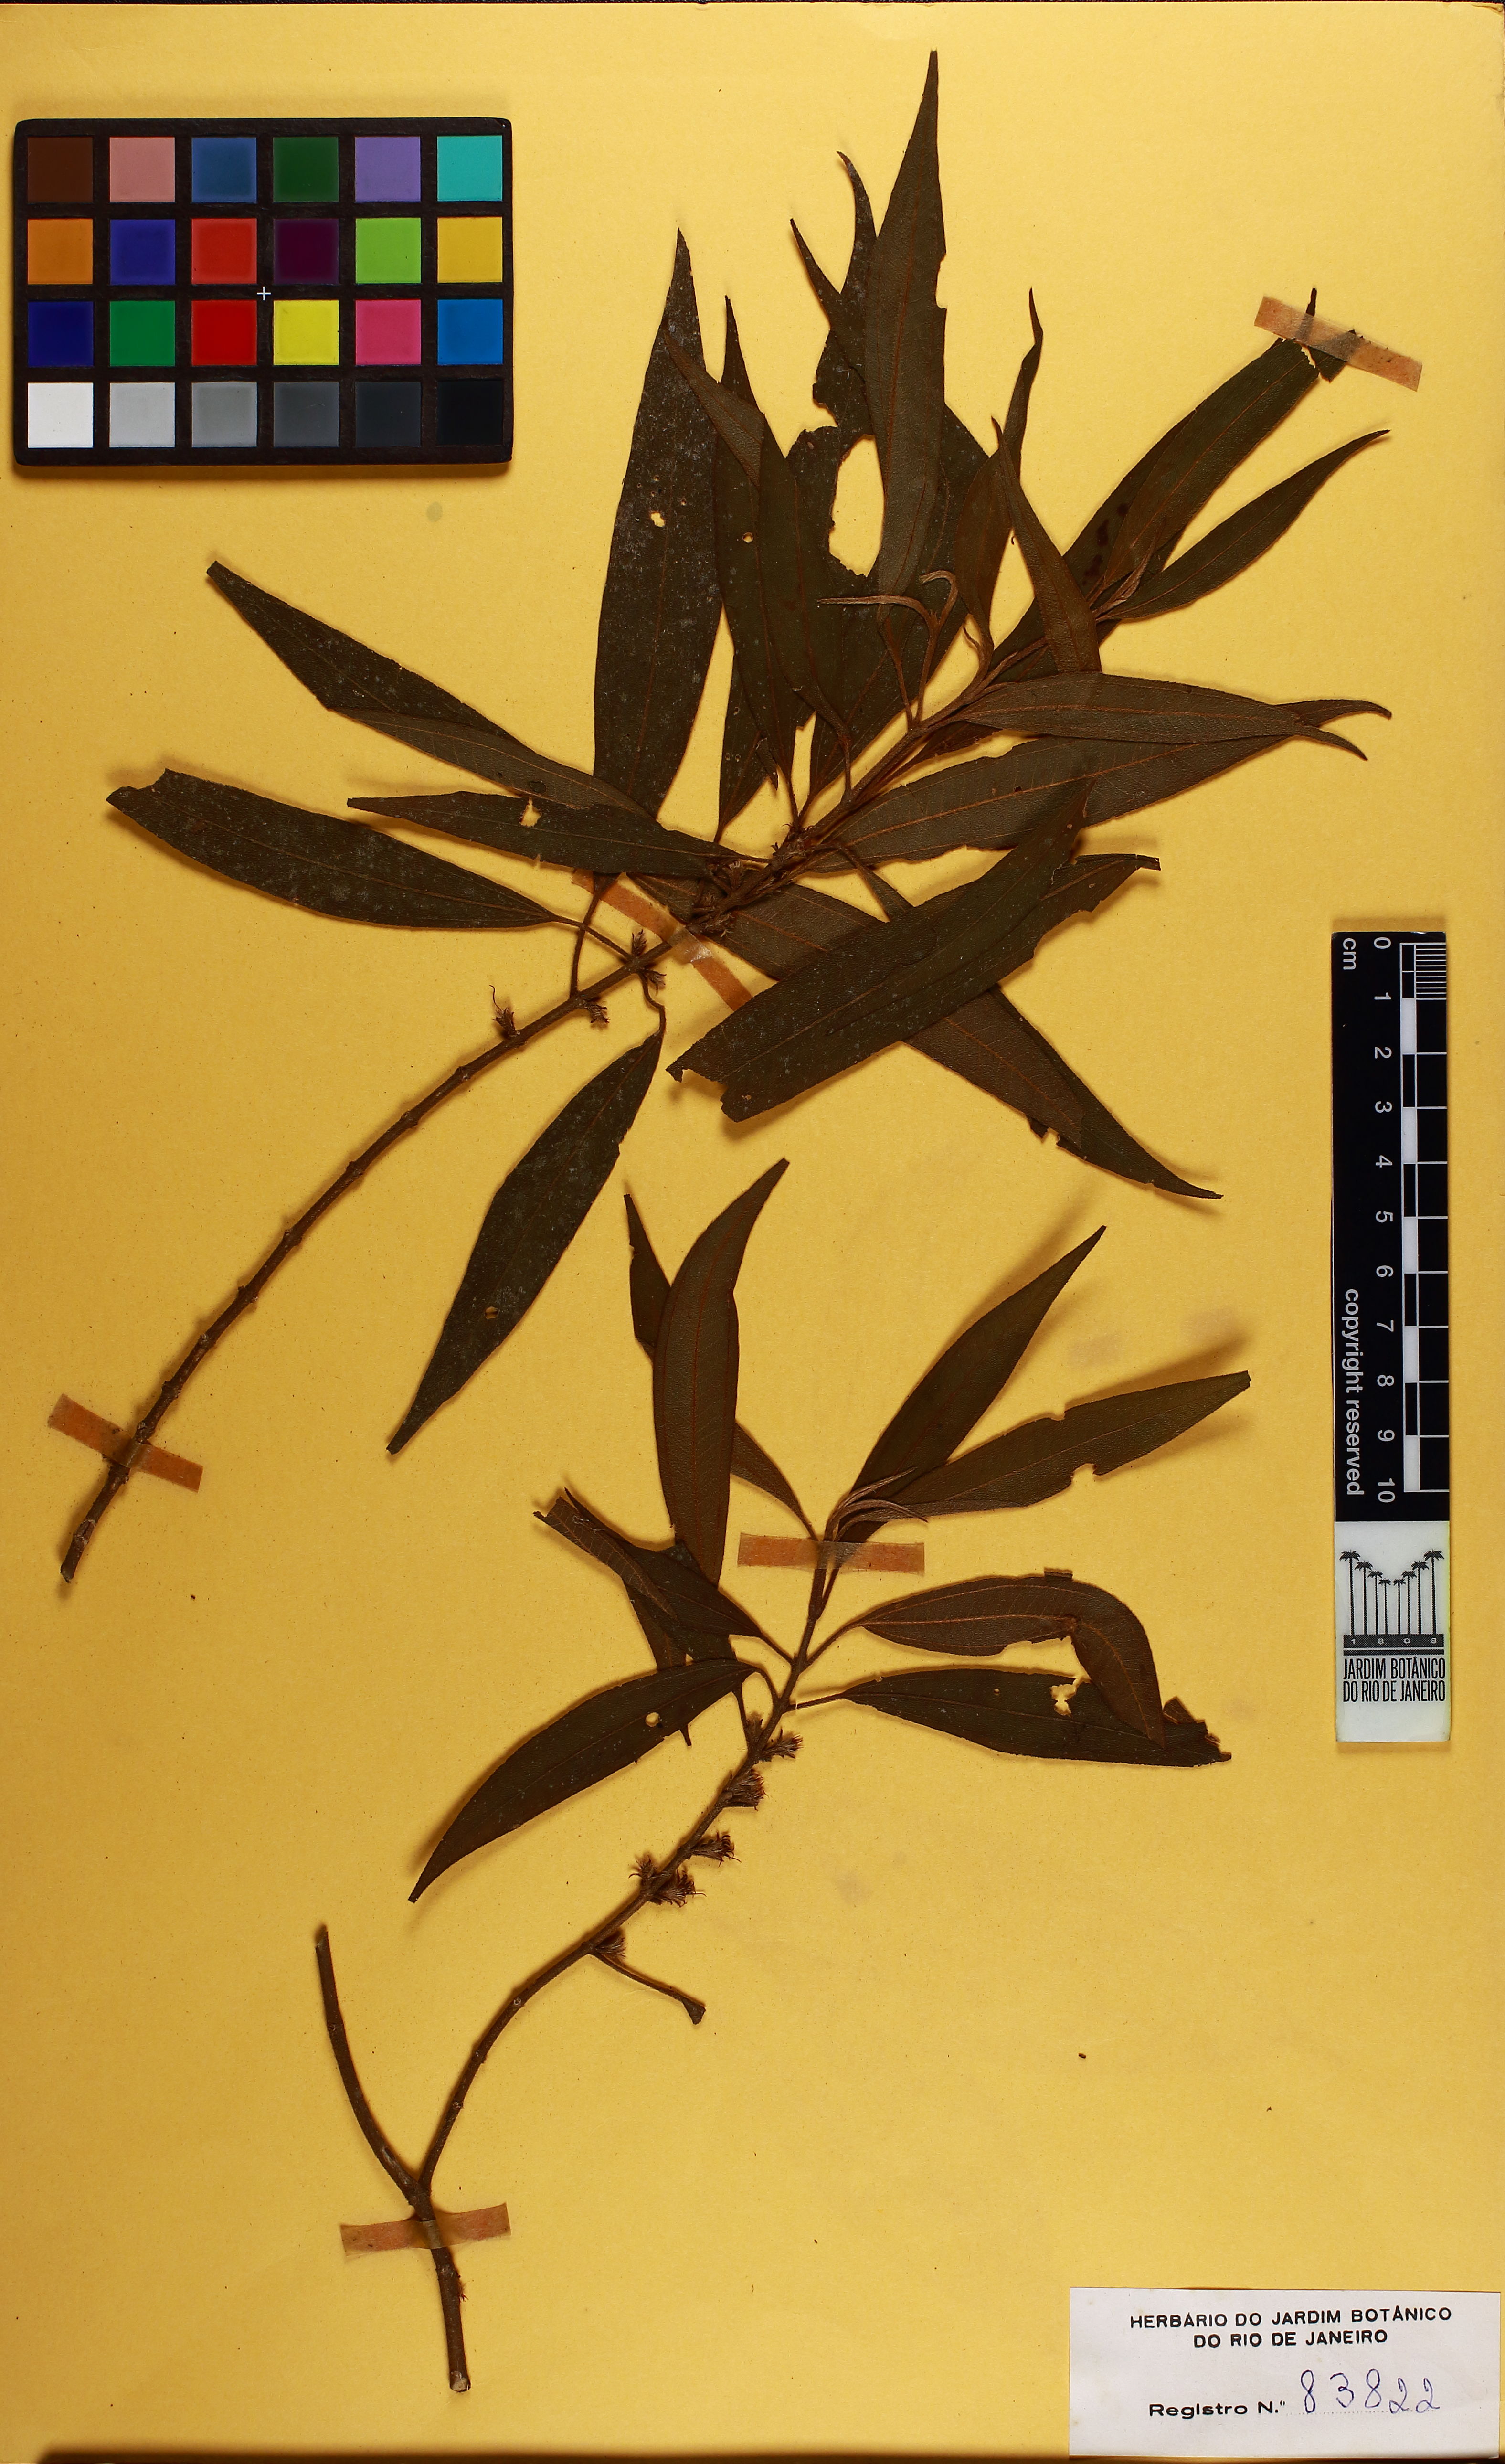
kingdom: Plantae
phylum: Tracheophyta
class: Magnoliopsida
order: Myrtales
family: Melastomataceae
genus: Miconia
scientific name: Miconia corcovadensis
